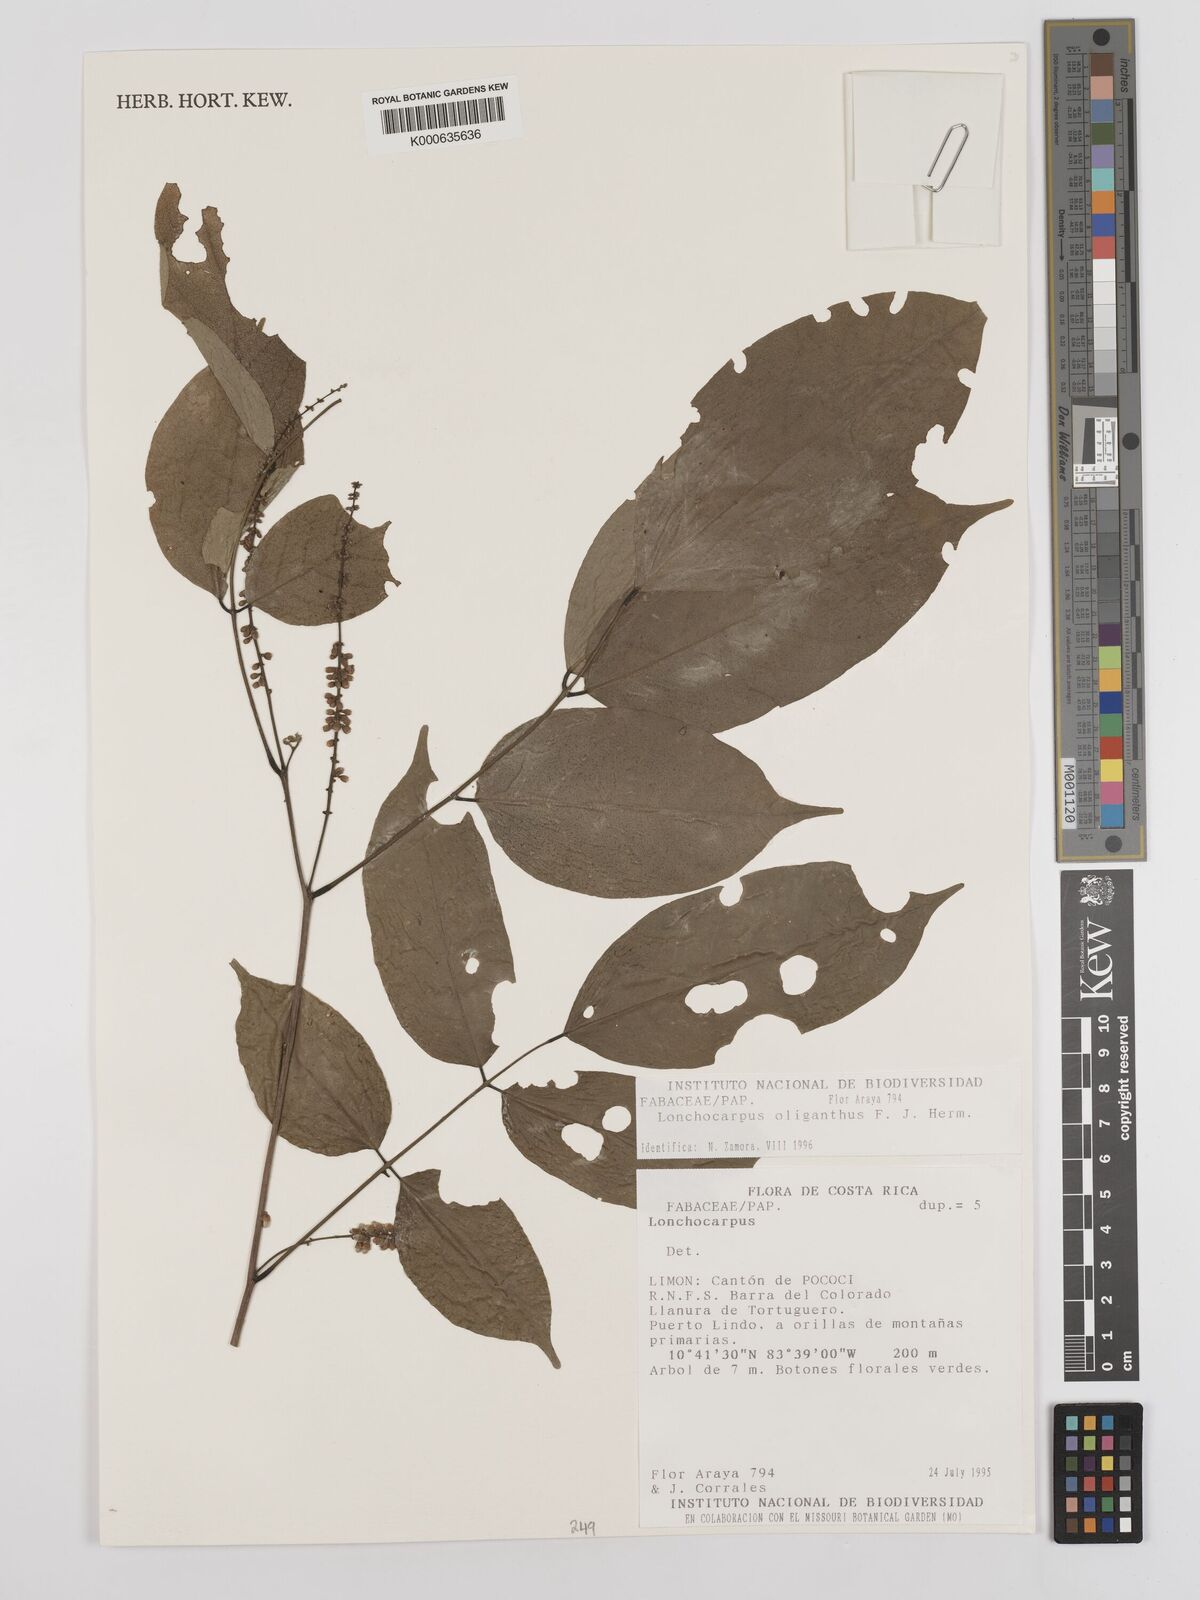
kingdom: Plantae
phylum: Tracheophyta
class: Magnoliopsida
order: Fabales
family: Fabaceae
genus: Lonchocarpus
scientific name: Lonchocarpus oliganthus
